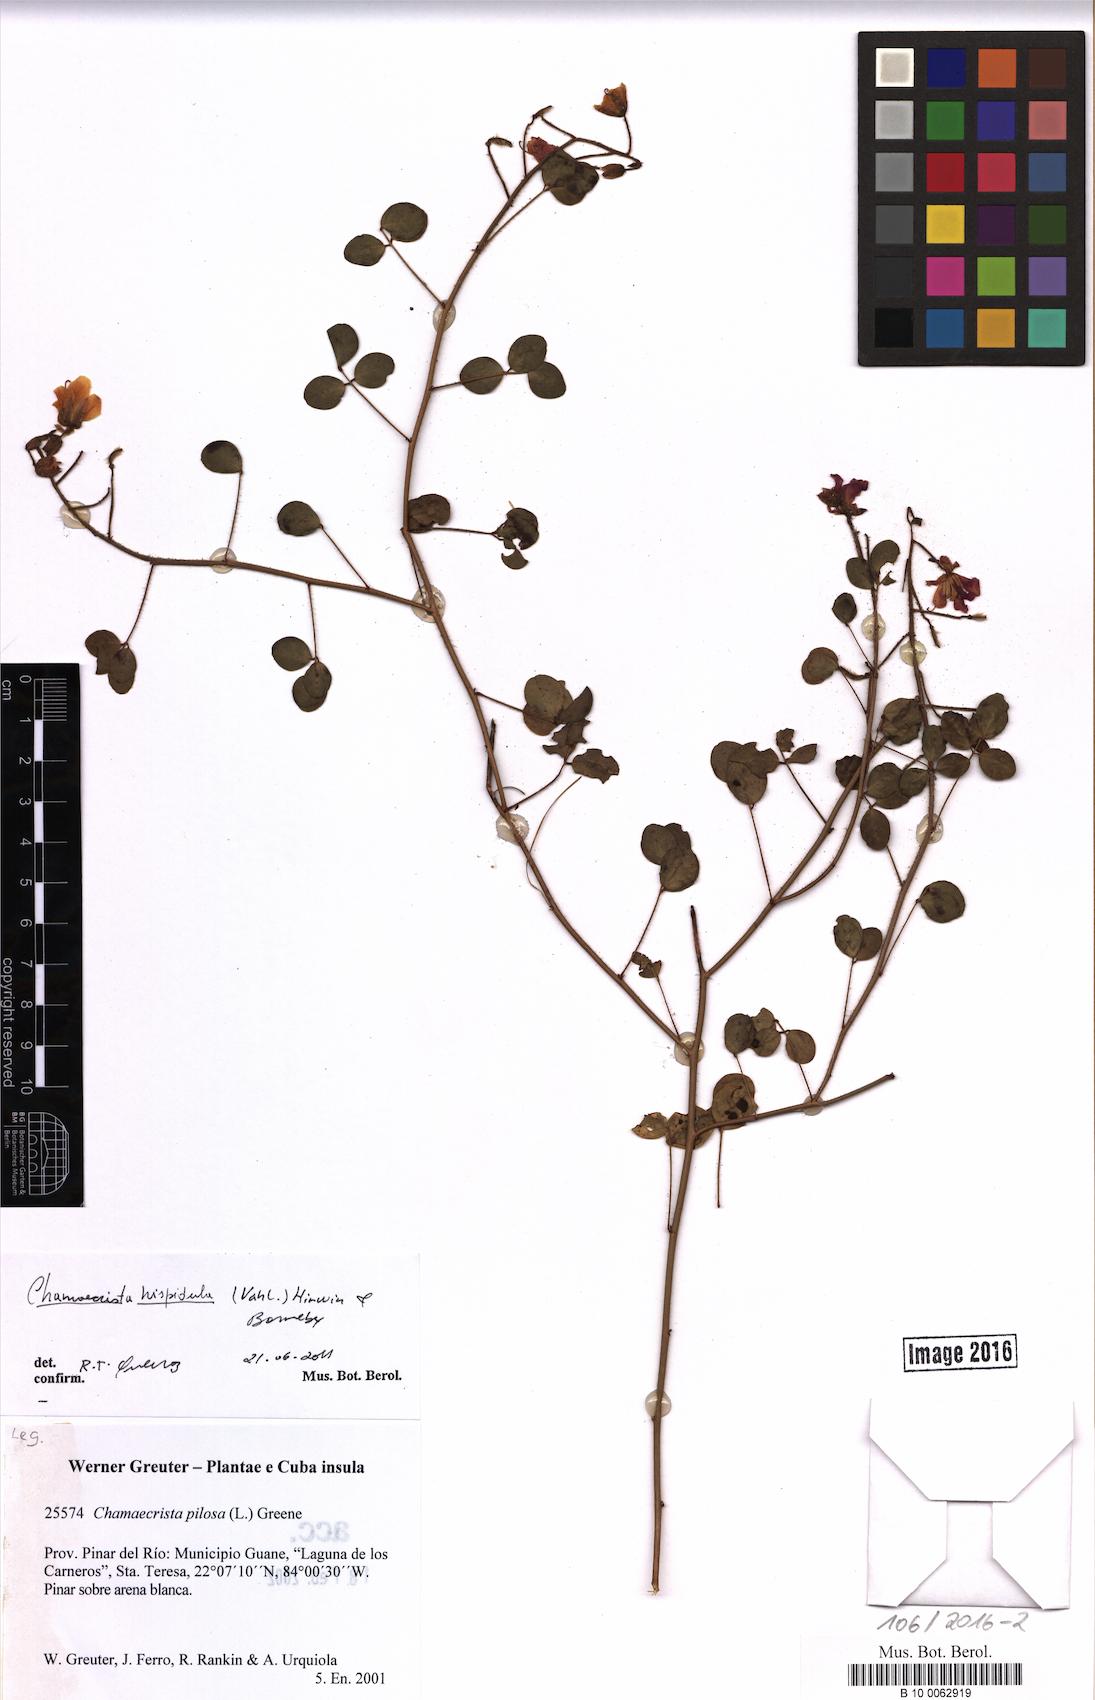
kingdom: Plantae
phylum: Tracheophyta
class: Magnoliopsida
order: Fabales
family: Fabaceae
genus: Chamaecrista
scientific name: Chamaecrista hispidula
